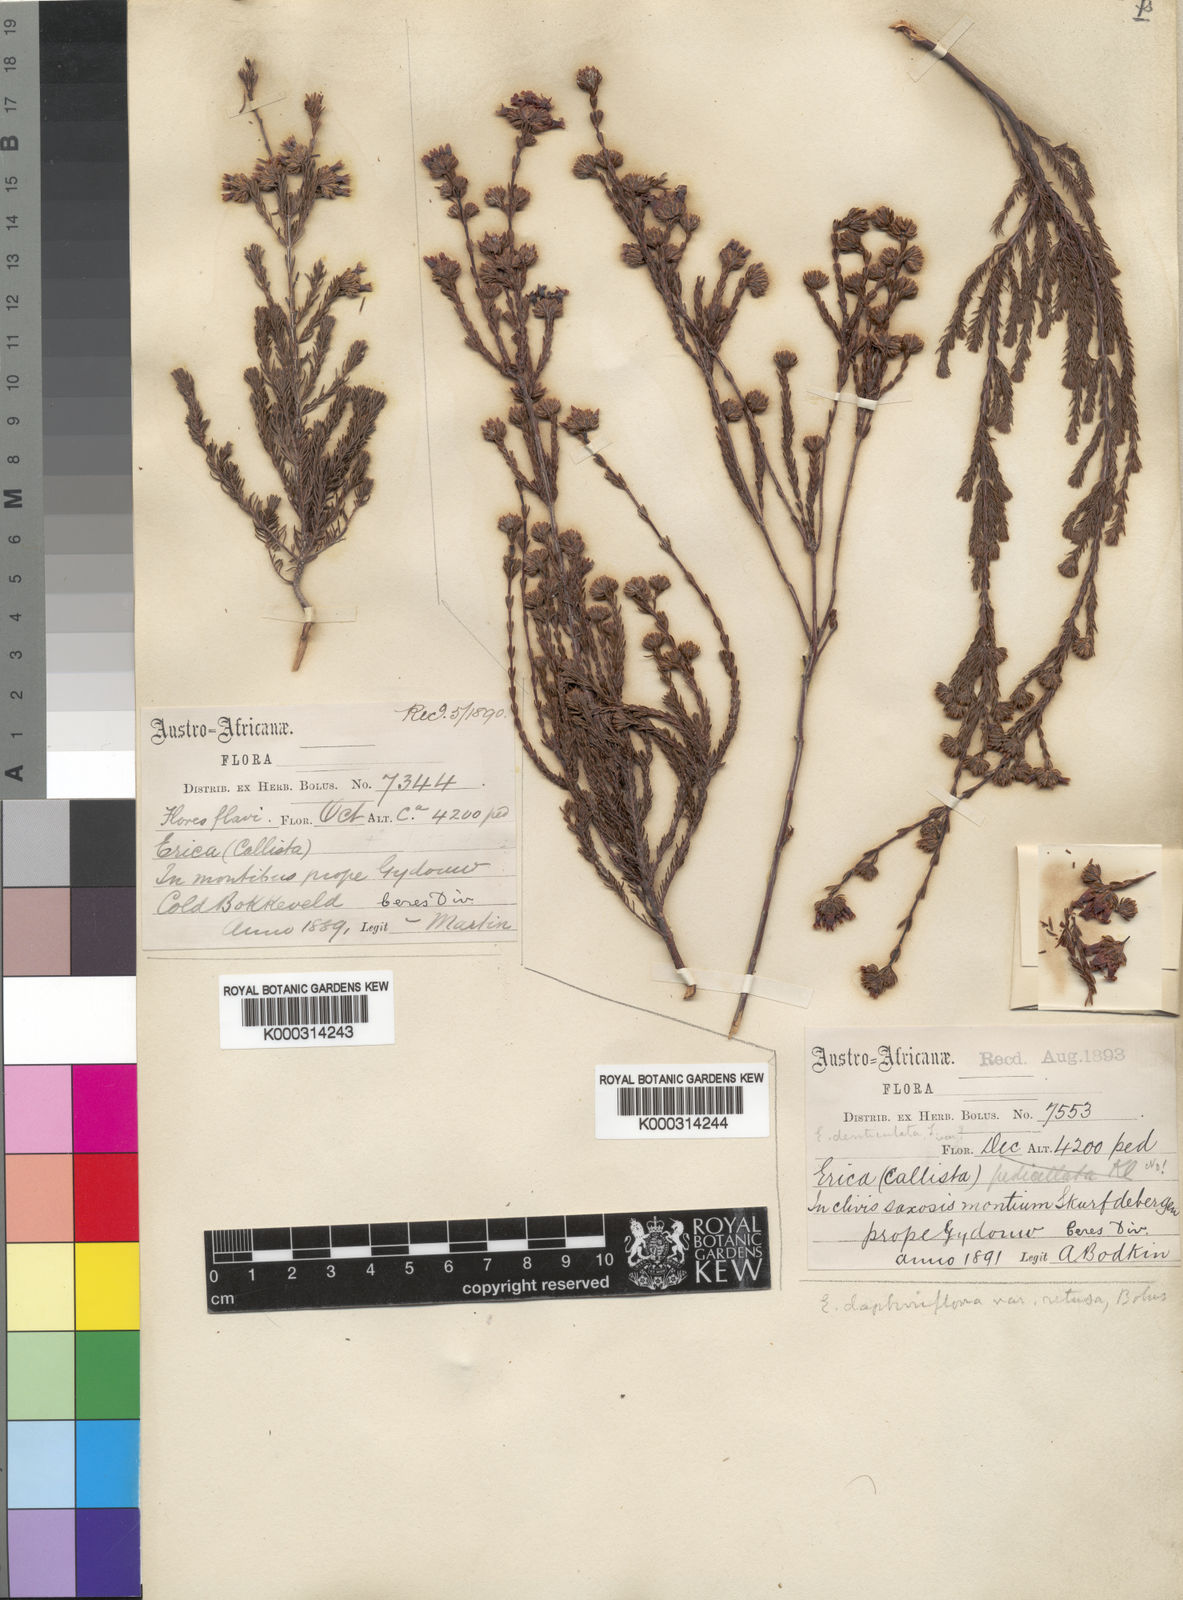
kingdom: Plantae
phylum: Tracheophyta
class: Magnoliopsida
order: Ericales
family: Ericaceae
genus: Erica
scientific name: Erica daphniflora
